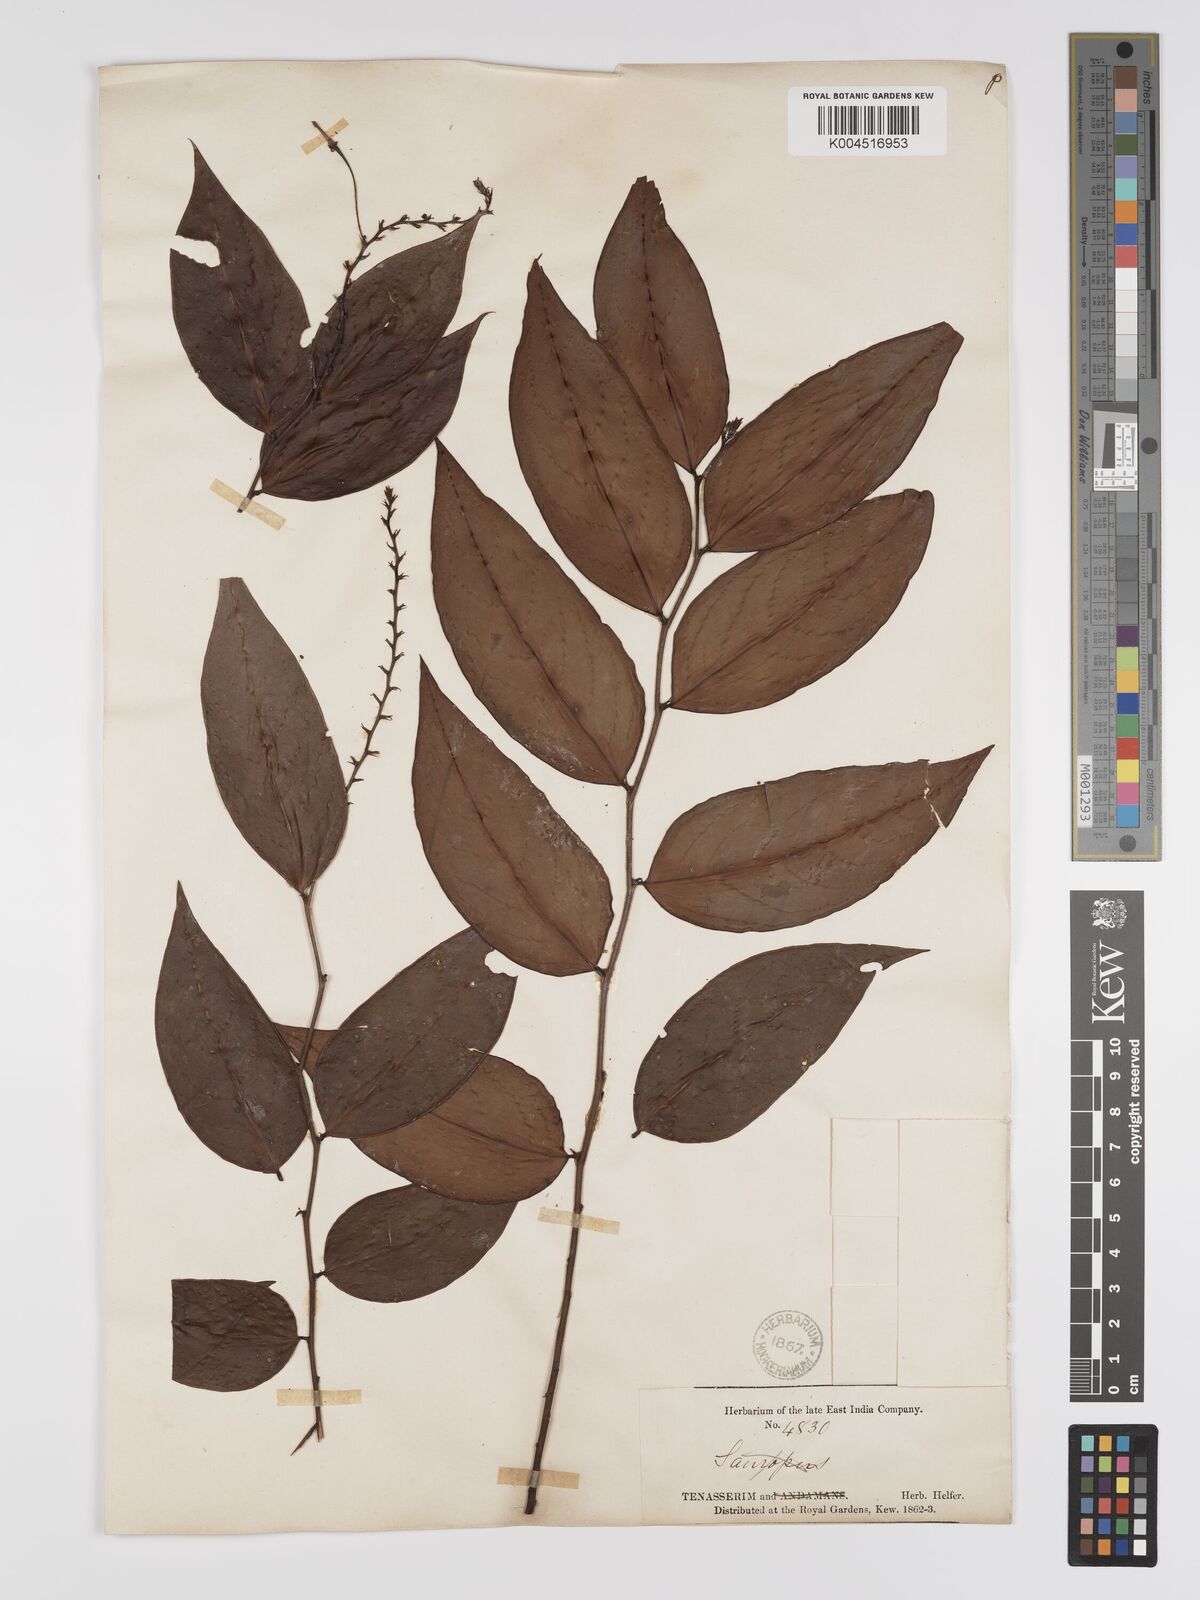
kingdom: Plantae
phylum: Tracheophyta
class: Magnoliopsida
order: Malpighiales
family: Phyllanthaceae
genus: Phyllanthus
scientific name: Phyllanthus elegans
